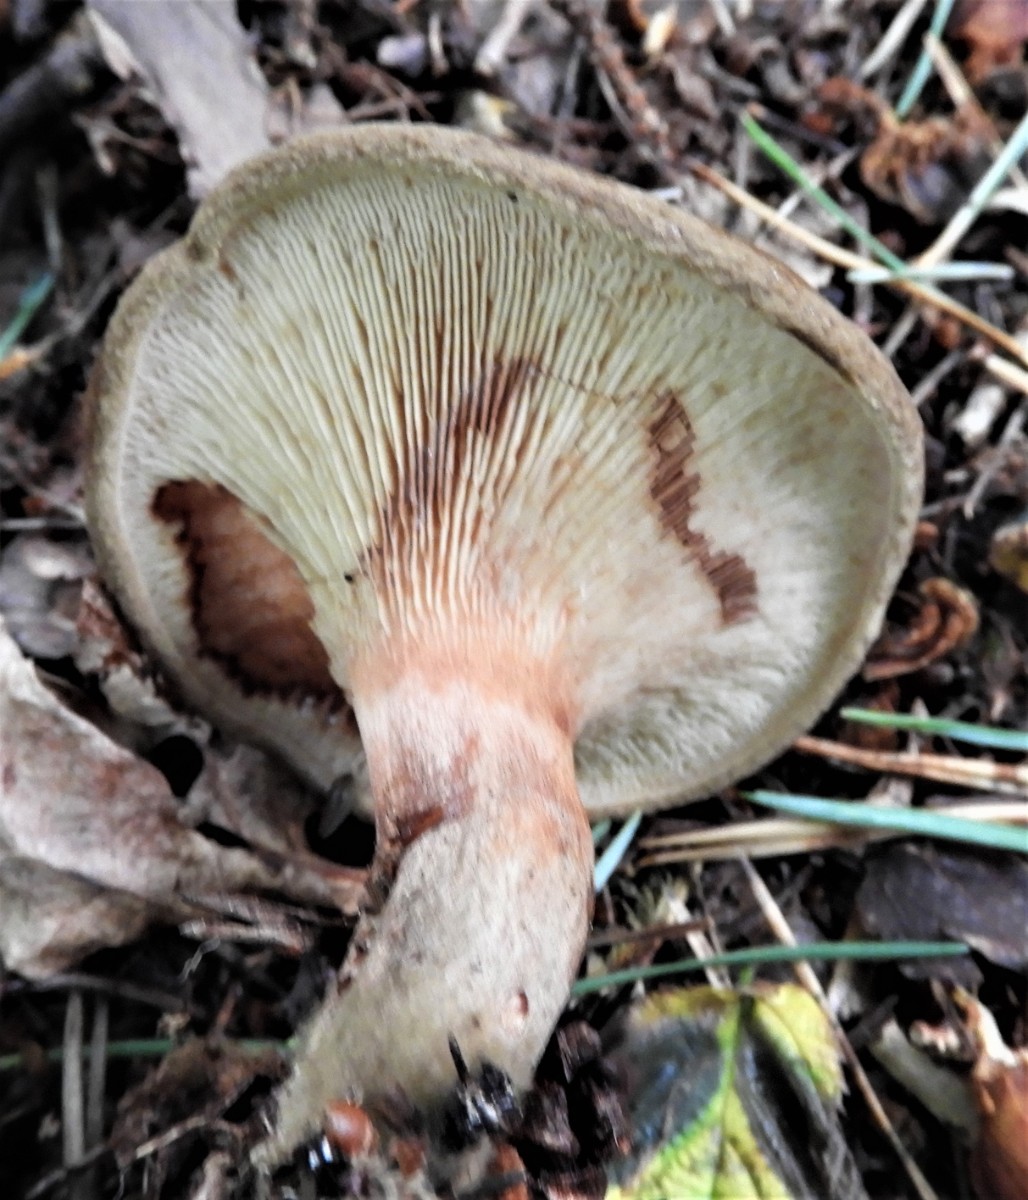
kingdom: Fungi
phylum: Basidiomycota
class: Agaricomycetes
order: Boletales
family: Paxillaceae
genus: Paxillus
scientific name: Paxillus involutus
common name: almindelig netbladhat
